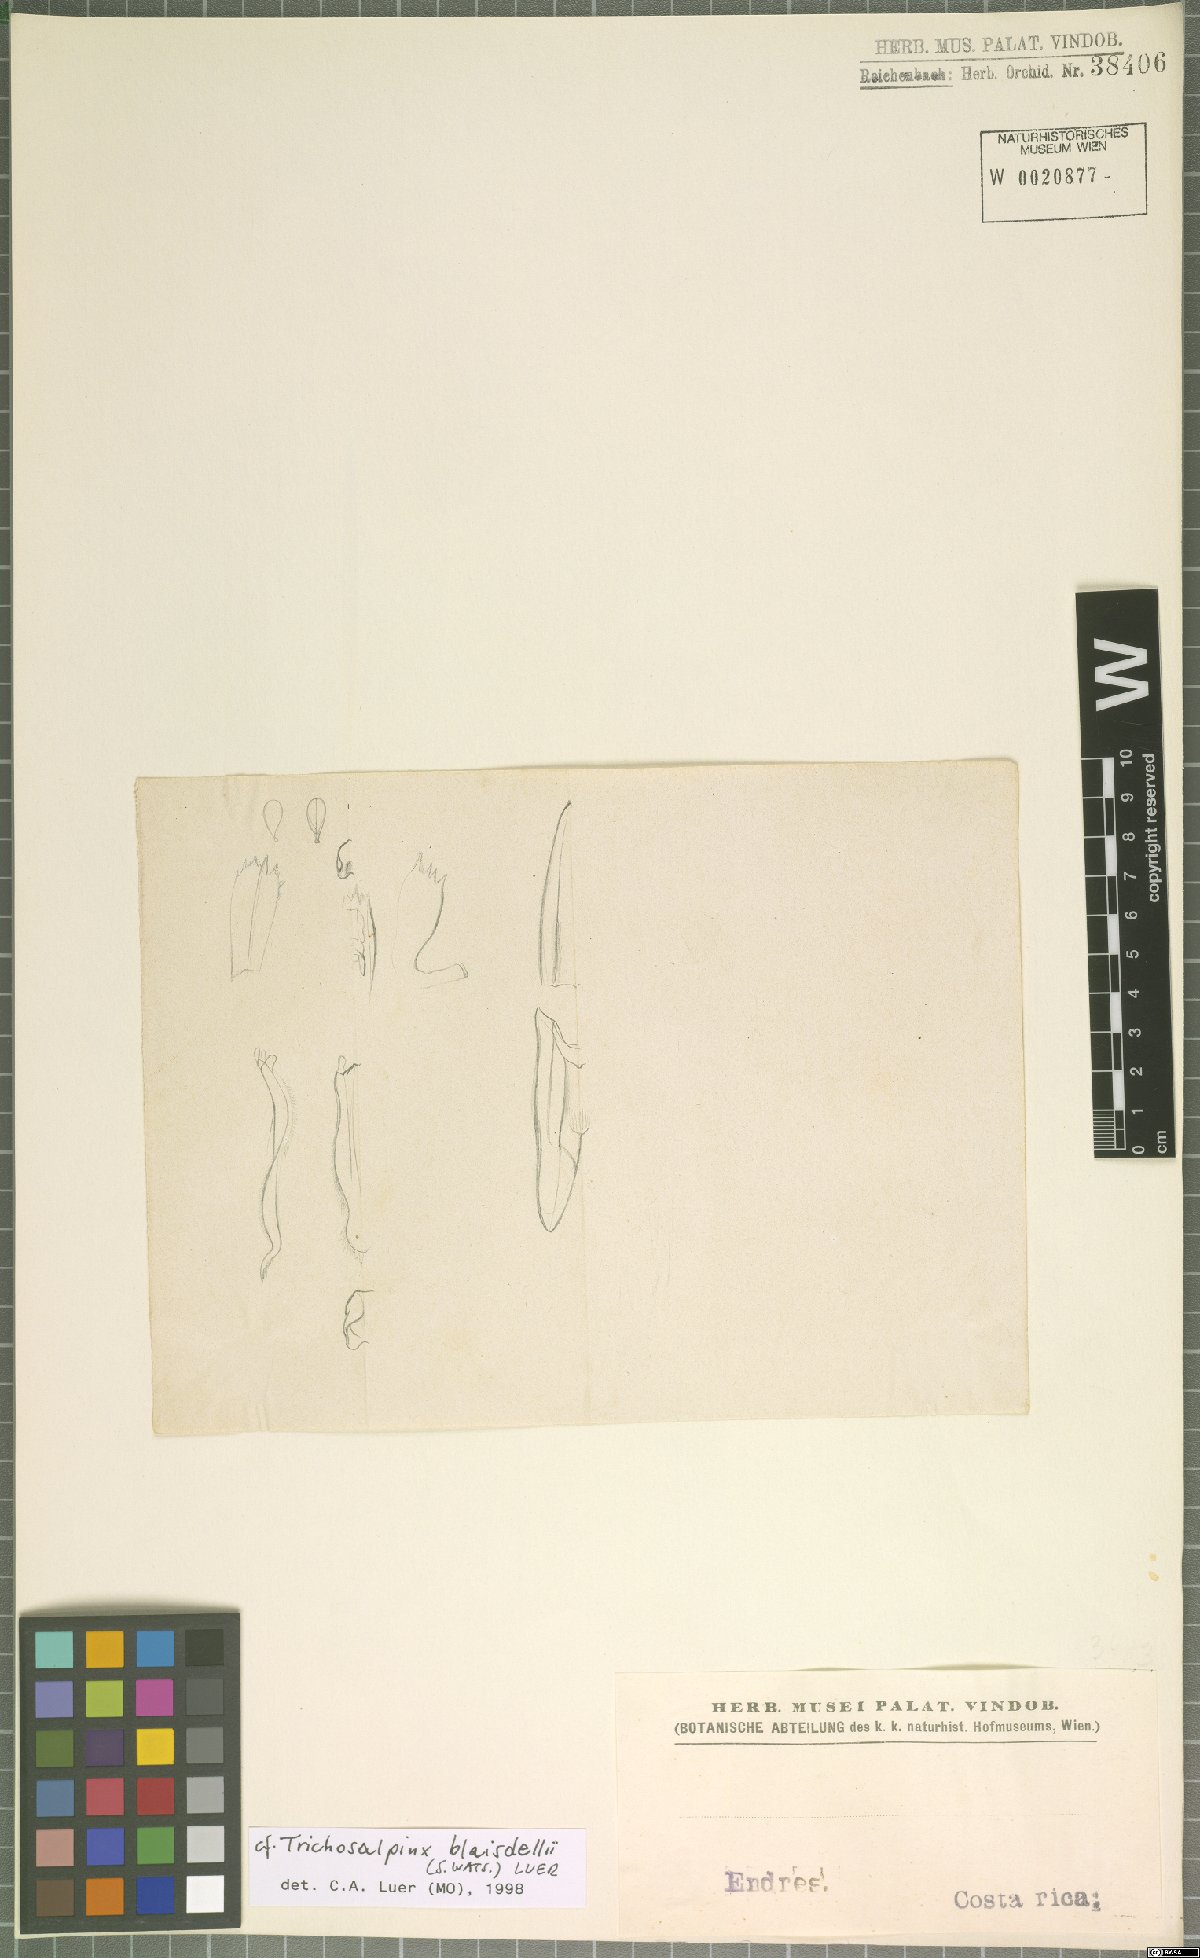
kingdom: Plantae
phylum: Tracheophyta
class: Liliopsida
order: Asparagales
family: Orchidaceae
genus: Trichosalpinx
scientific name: Trichosalpinx blaisdellii
